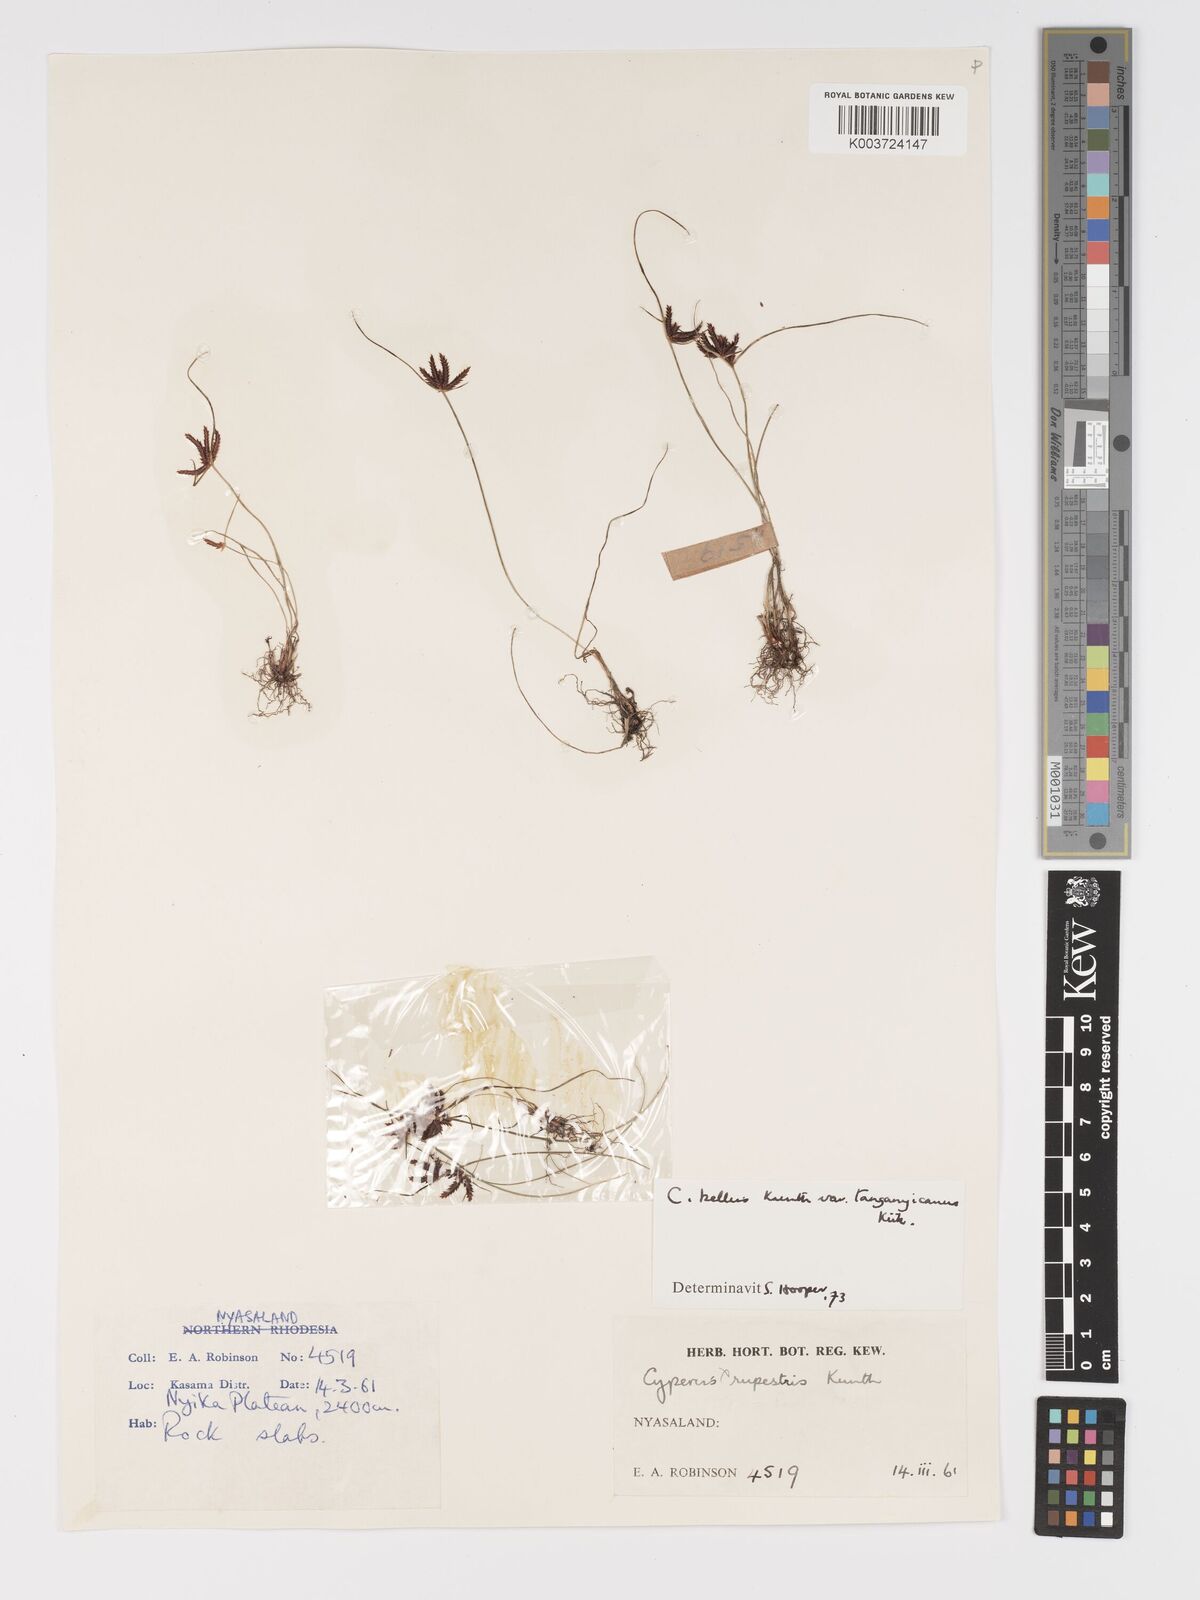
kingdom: Plantae
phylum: Tracheophyta
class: Liliopsida
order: Poales
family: Cyperaceae
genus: Cyperus
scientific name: Cyperus semitrifidus
